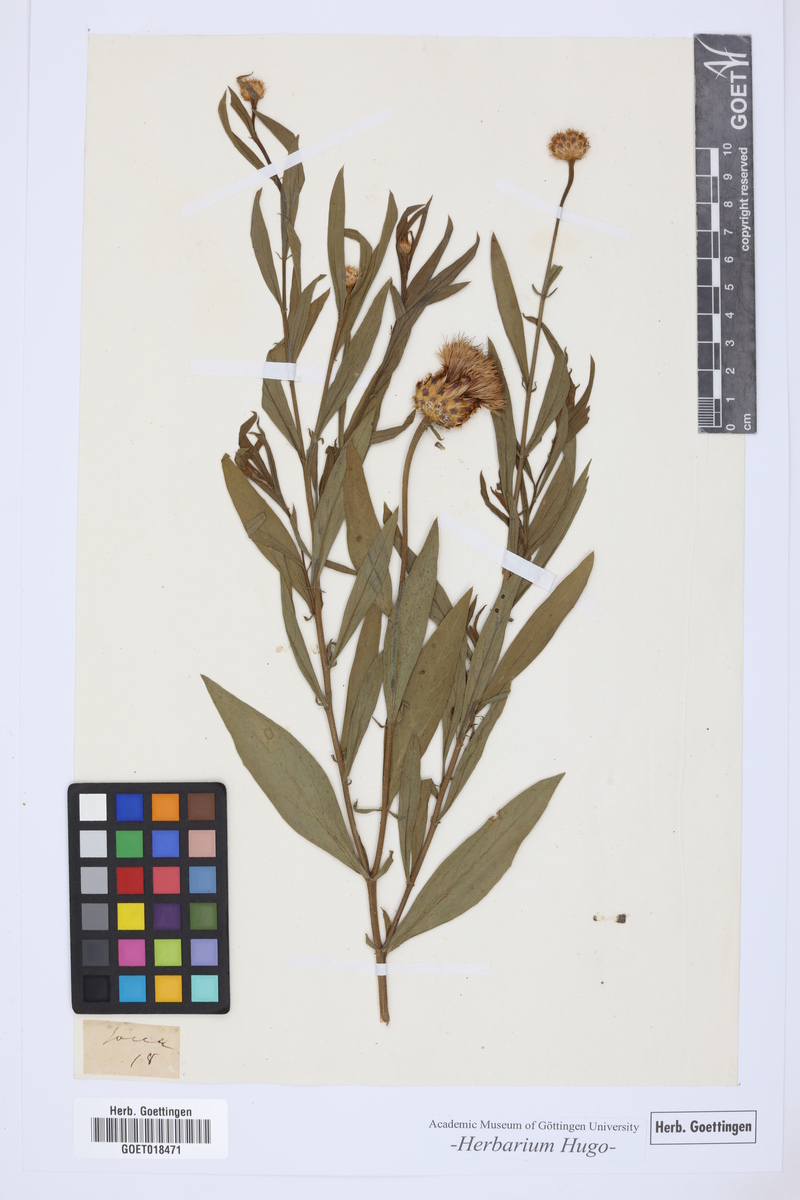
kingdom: Plantae
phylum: Tracheophyta
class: Magnoliopsida
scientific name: Magnoliopsida
